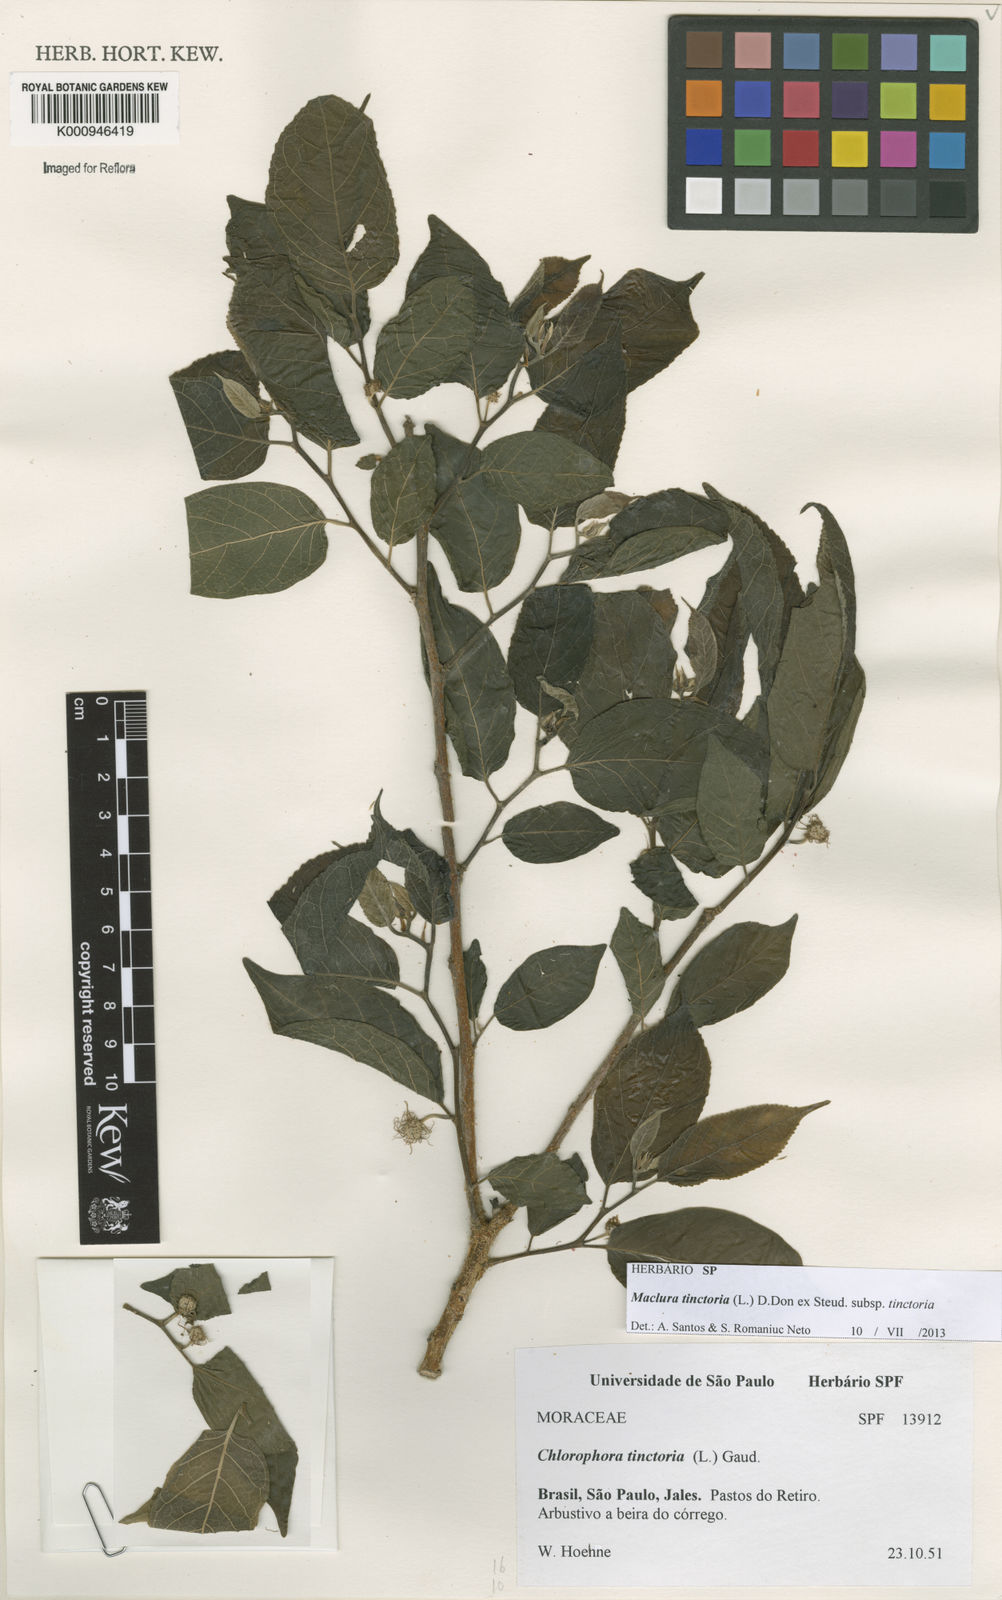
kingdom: Plantae
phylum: Tracheophyta
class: Magnoliopsida
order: Rosales
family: Moraceae
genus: Maclura
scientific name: Maclura
